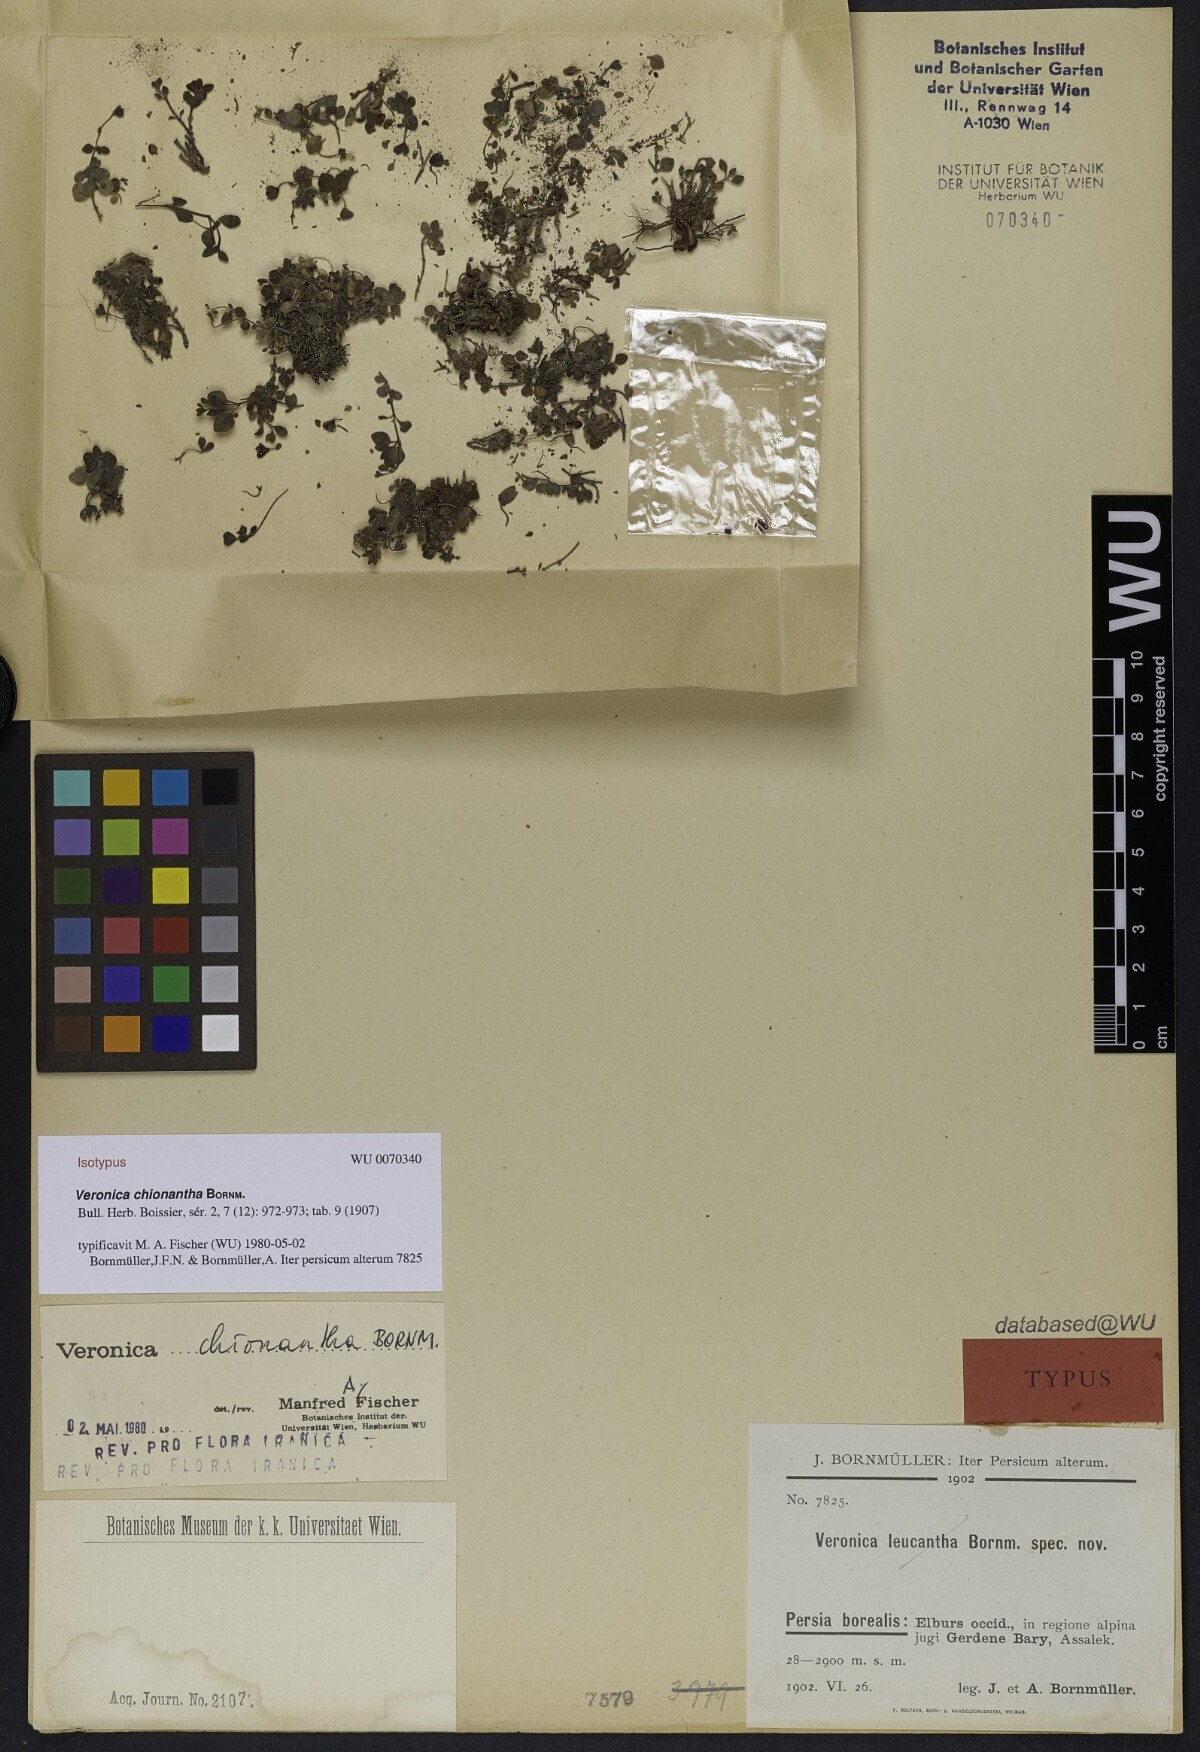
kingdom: Plantae
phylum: Tracheophyta
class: Magnoliopsida
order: Lamiales
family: Plantaginaceae
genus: Veronica
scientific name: Veronica chionantha
